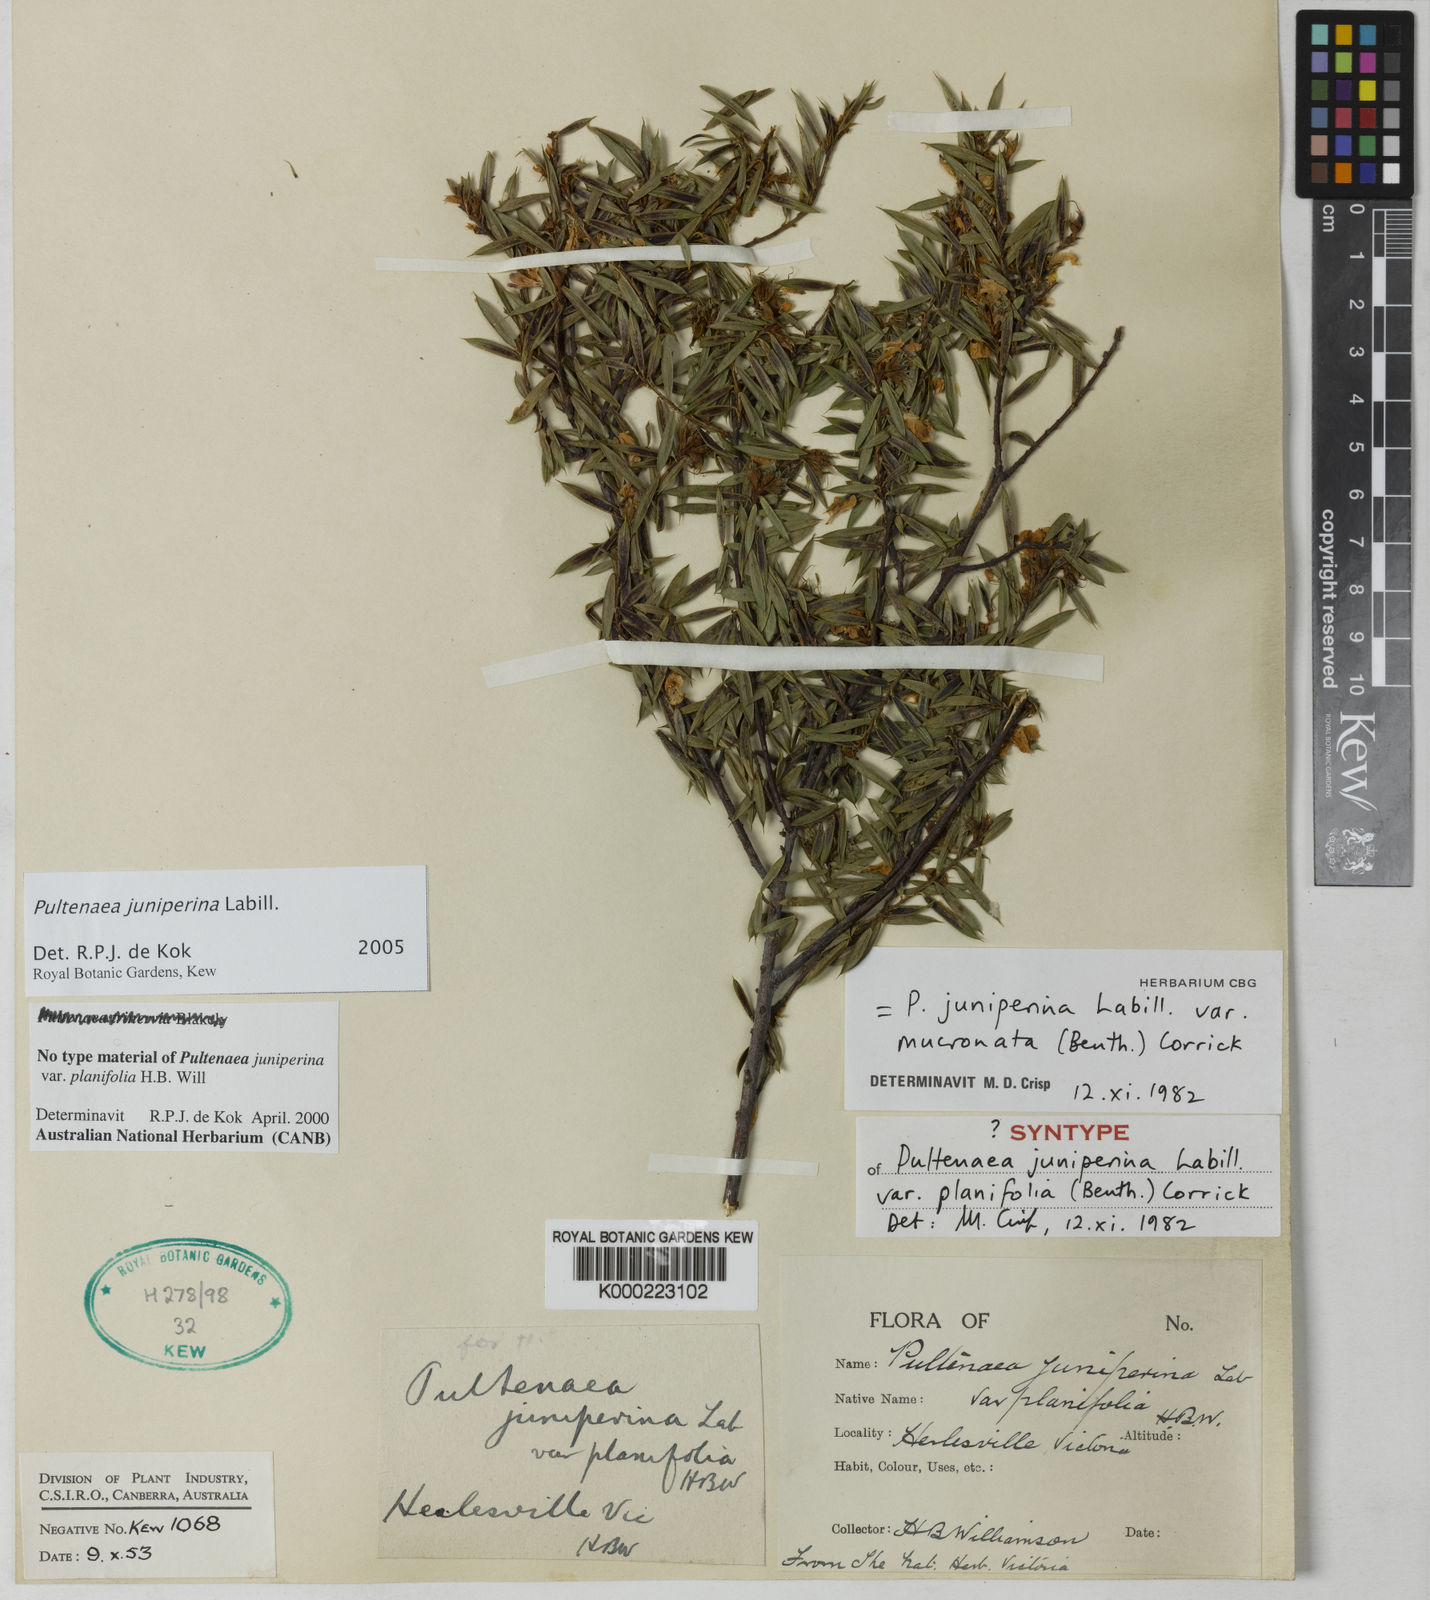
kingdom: Plantae
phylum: Tracheophyta
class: Magnoliopsida
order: Fabales
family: Fabaceae
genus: Pultenaea
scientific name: Pultenaea juniperina
